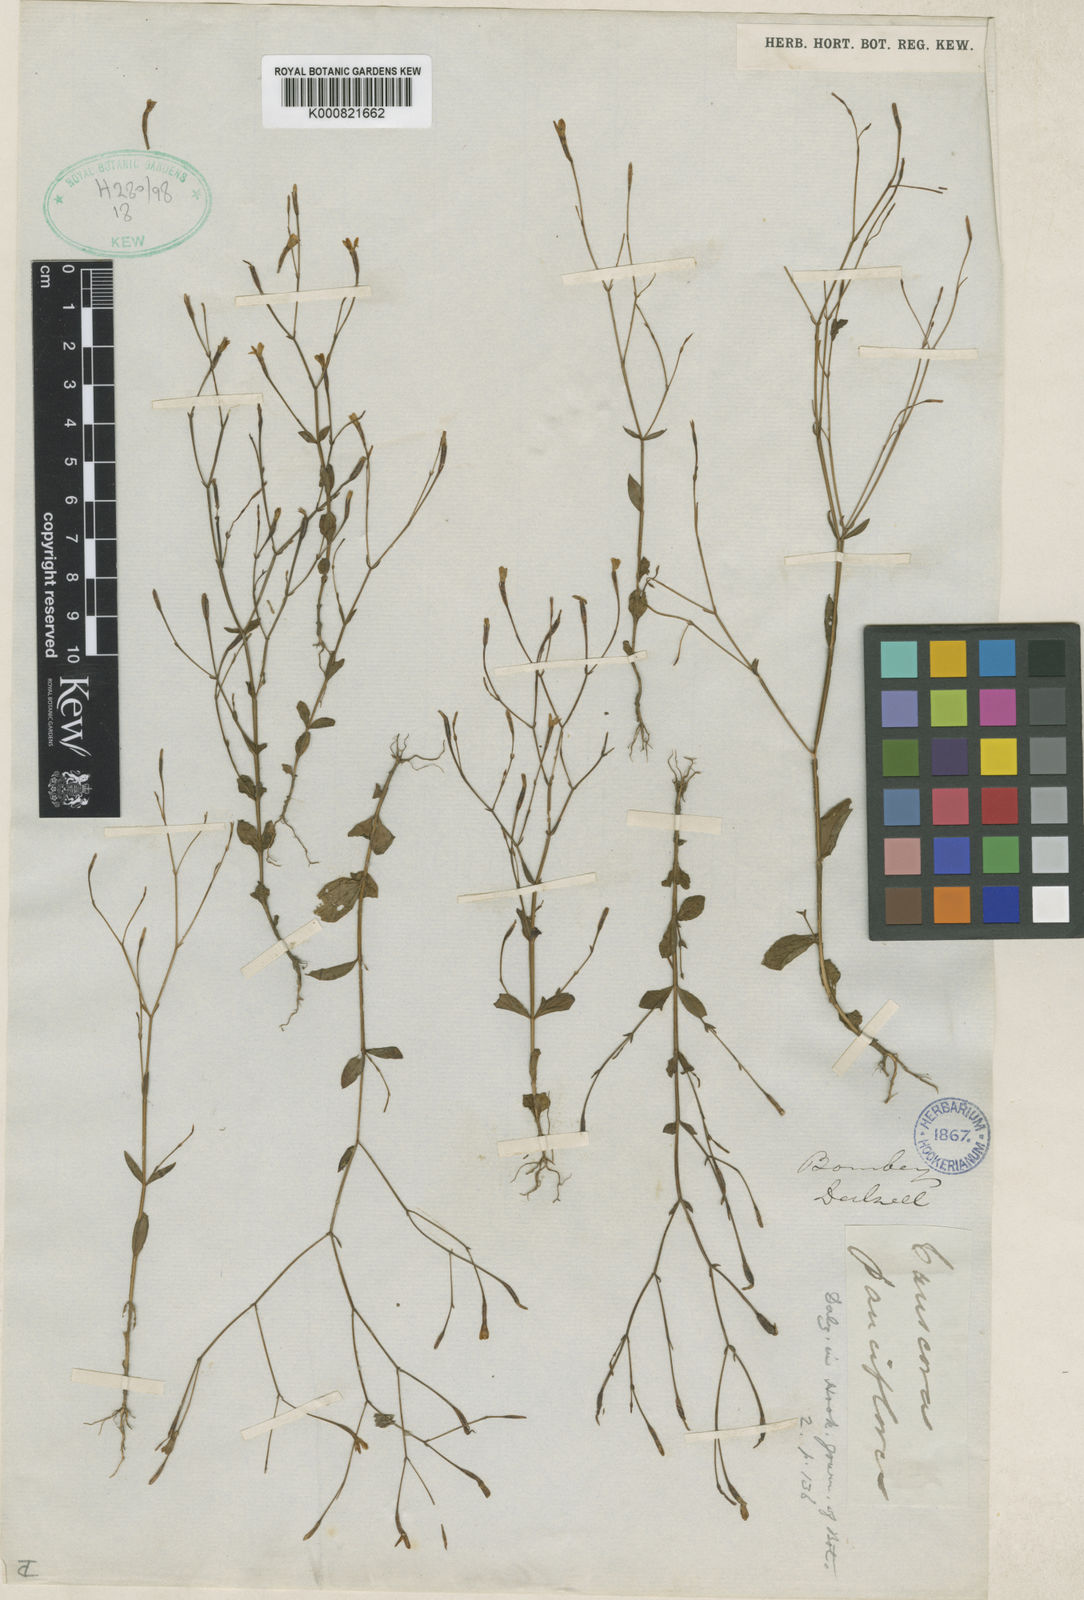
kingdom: Plantae
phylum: Tracheophyta
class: Magnoliopsida
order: Gentianales
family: Gentianaceae
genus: Canscora
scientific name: Canscora diffusa
